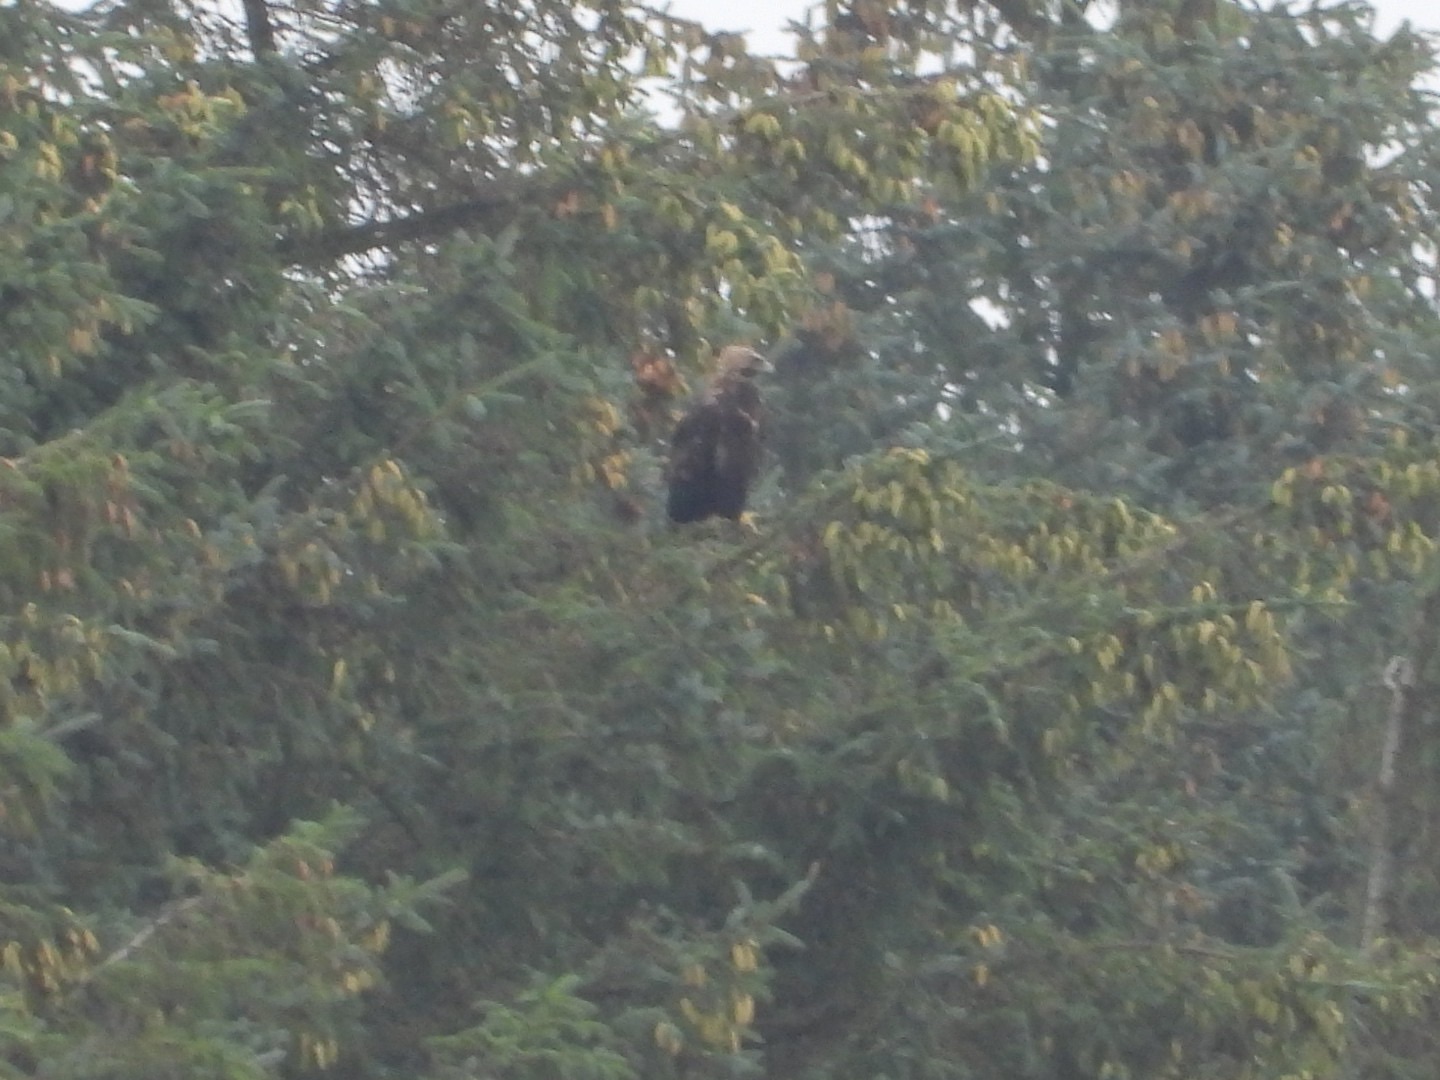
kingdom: Animalia
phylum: Chordata
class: Aves
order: Accipitriformes
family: Accipitridae
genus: Aquila
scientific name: Aquila chrysaetos
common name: Kongeørn
